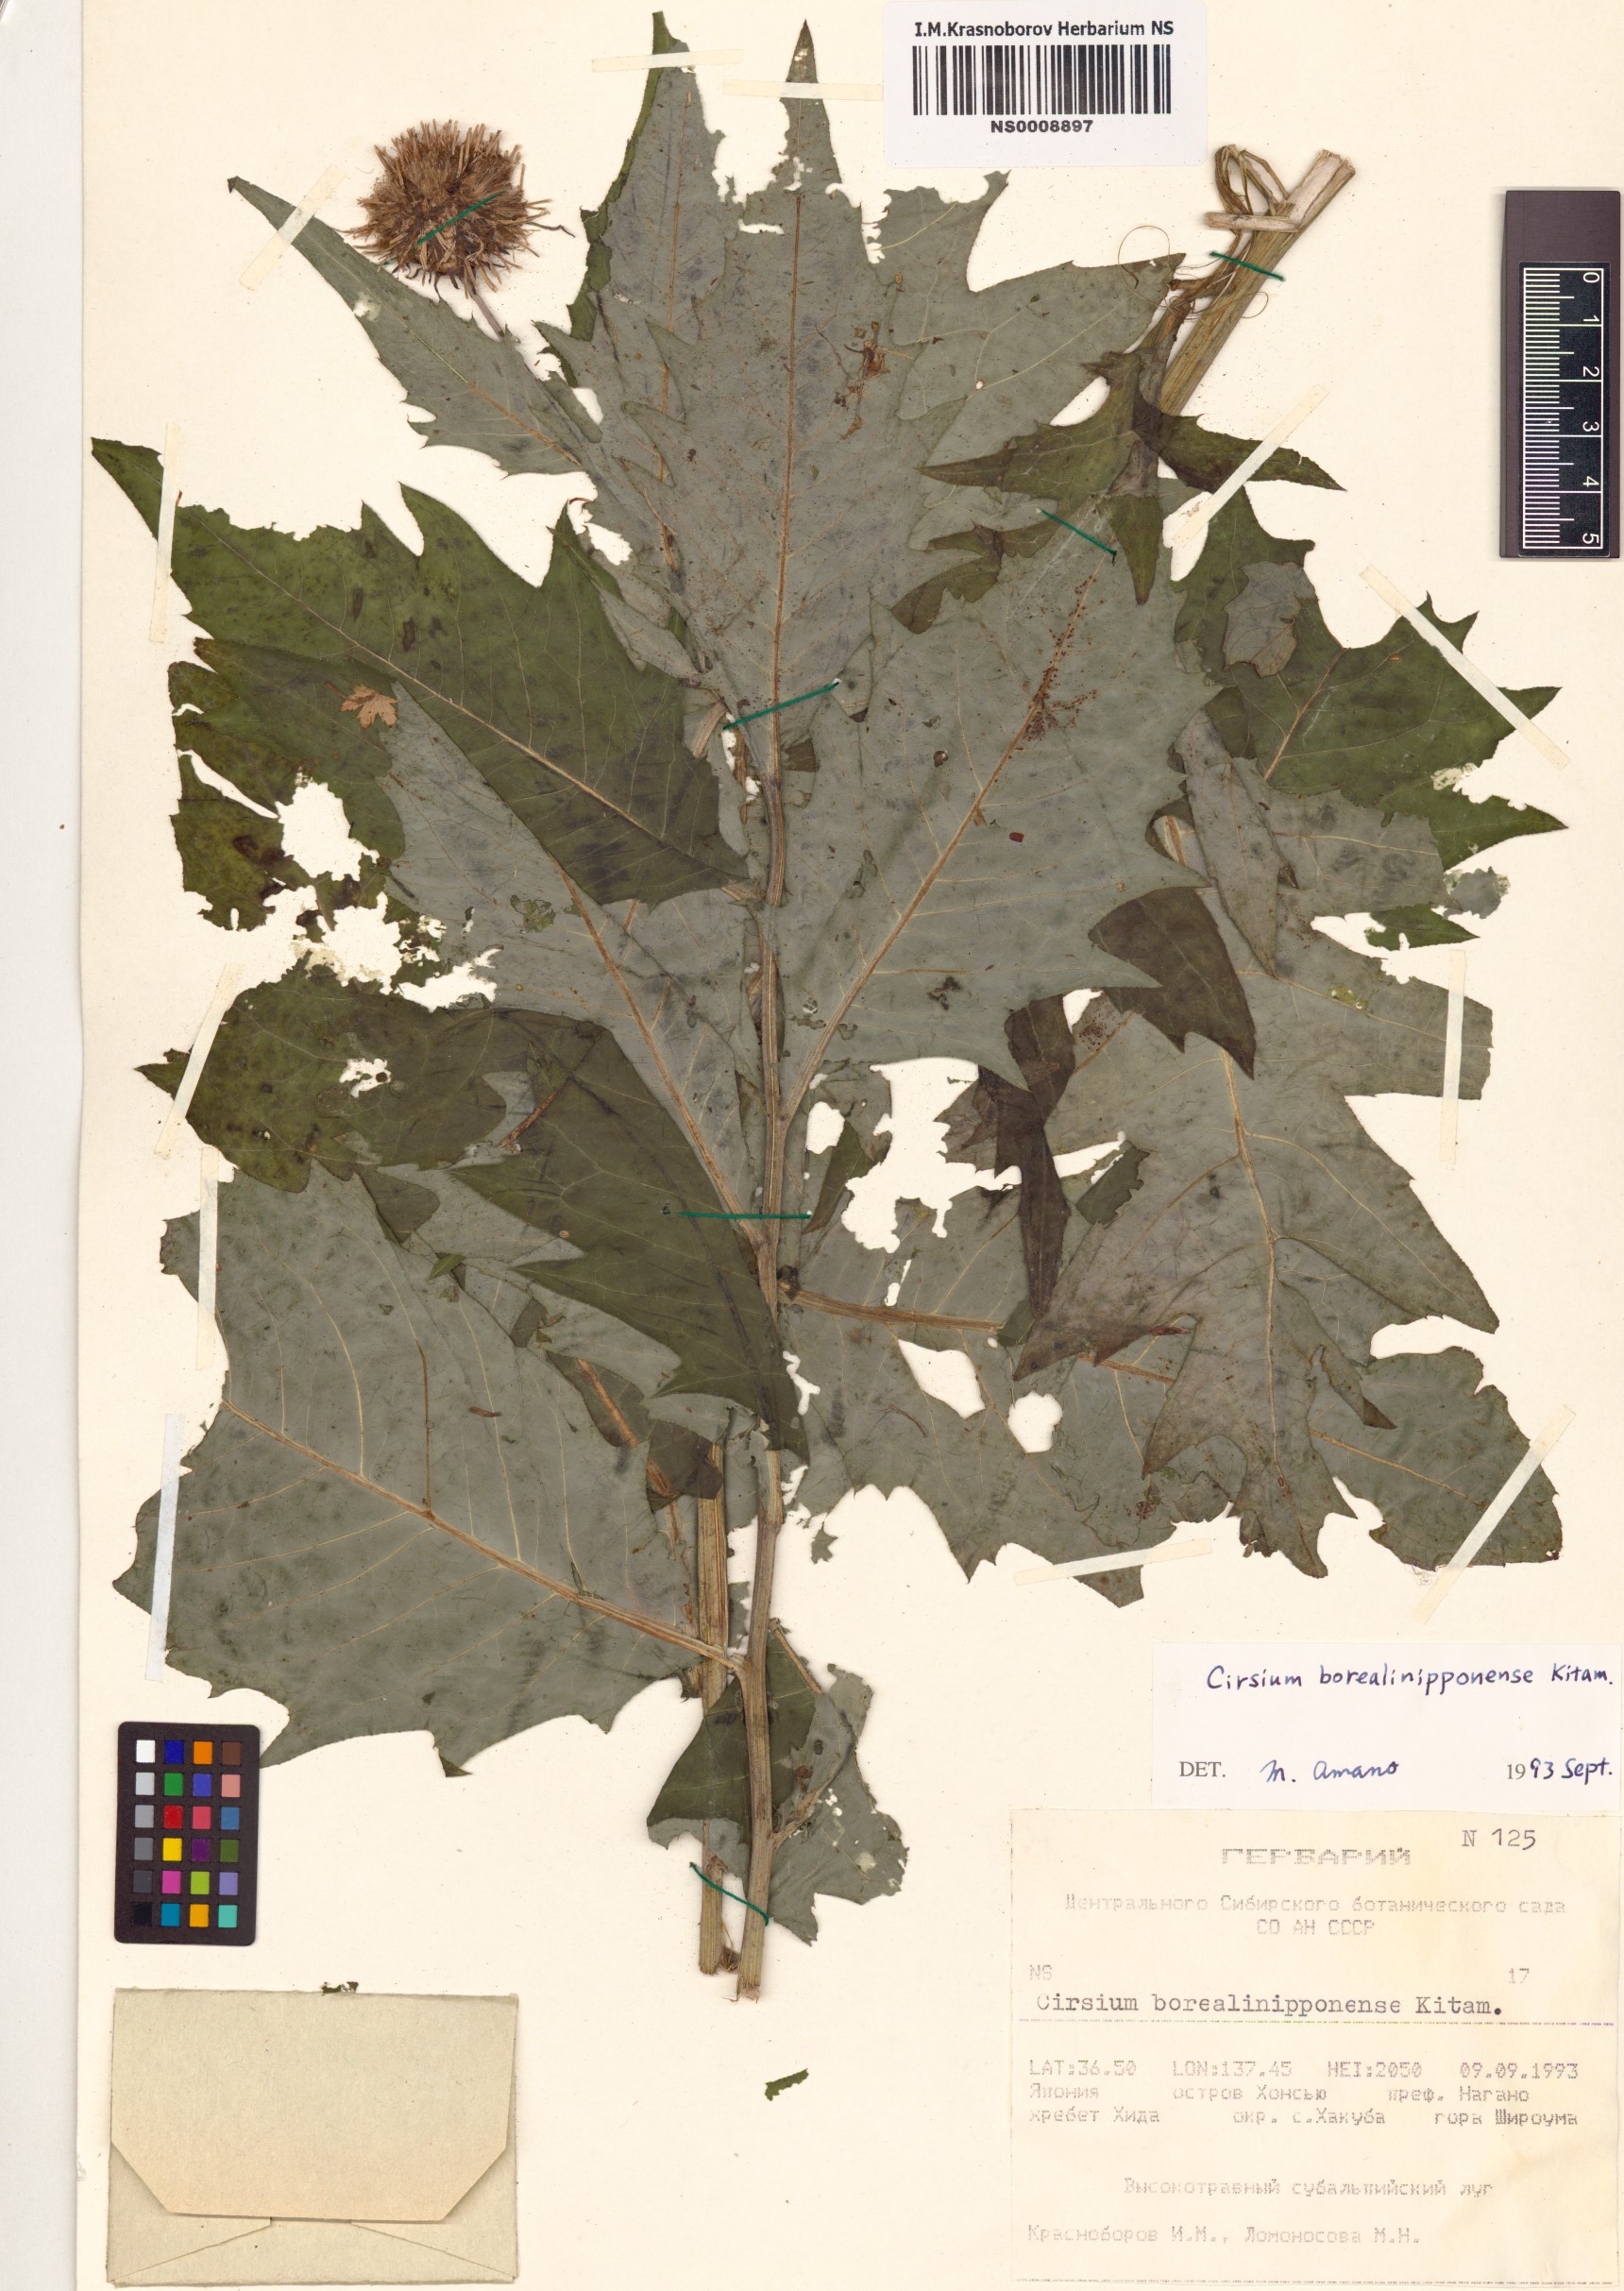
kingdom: Plantae
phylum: Tracheophyta
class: Magnoliopsida
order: Asterales
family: Asteraceae
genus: Cirsium
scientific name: Cirsium borealinipponense
